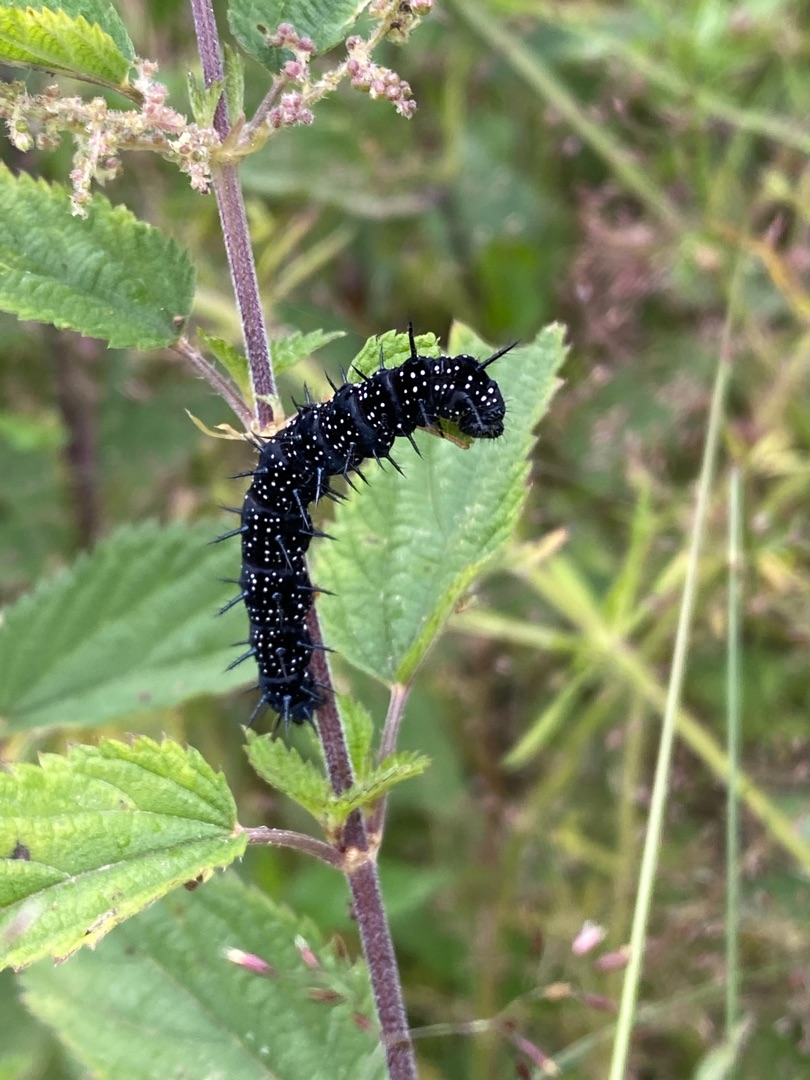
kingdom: Animalia
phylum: Arthropoda
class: Insecta
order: Lepidoptera
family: Nymphalidae
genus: Aglais
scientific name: Aglais io
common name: Dagpåfugleøje
